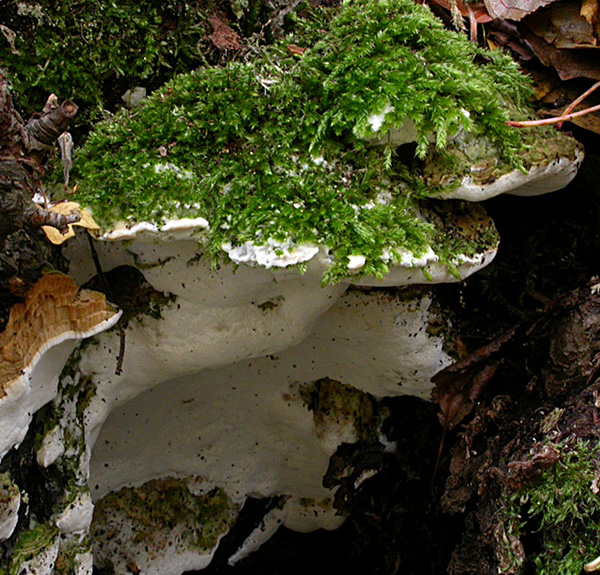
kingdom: Fungi
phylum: Basidiomycota
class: Agaricomycetes
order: Hymenochaetales
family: Oxyporaceae
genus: Oxyporus
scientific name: Oxyporus populinus
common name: sammenvokset trylleporesvamp
